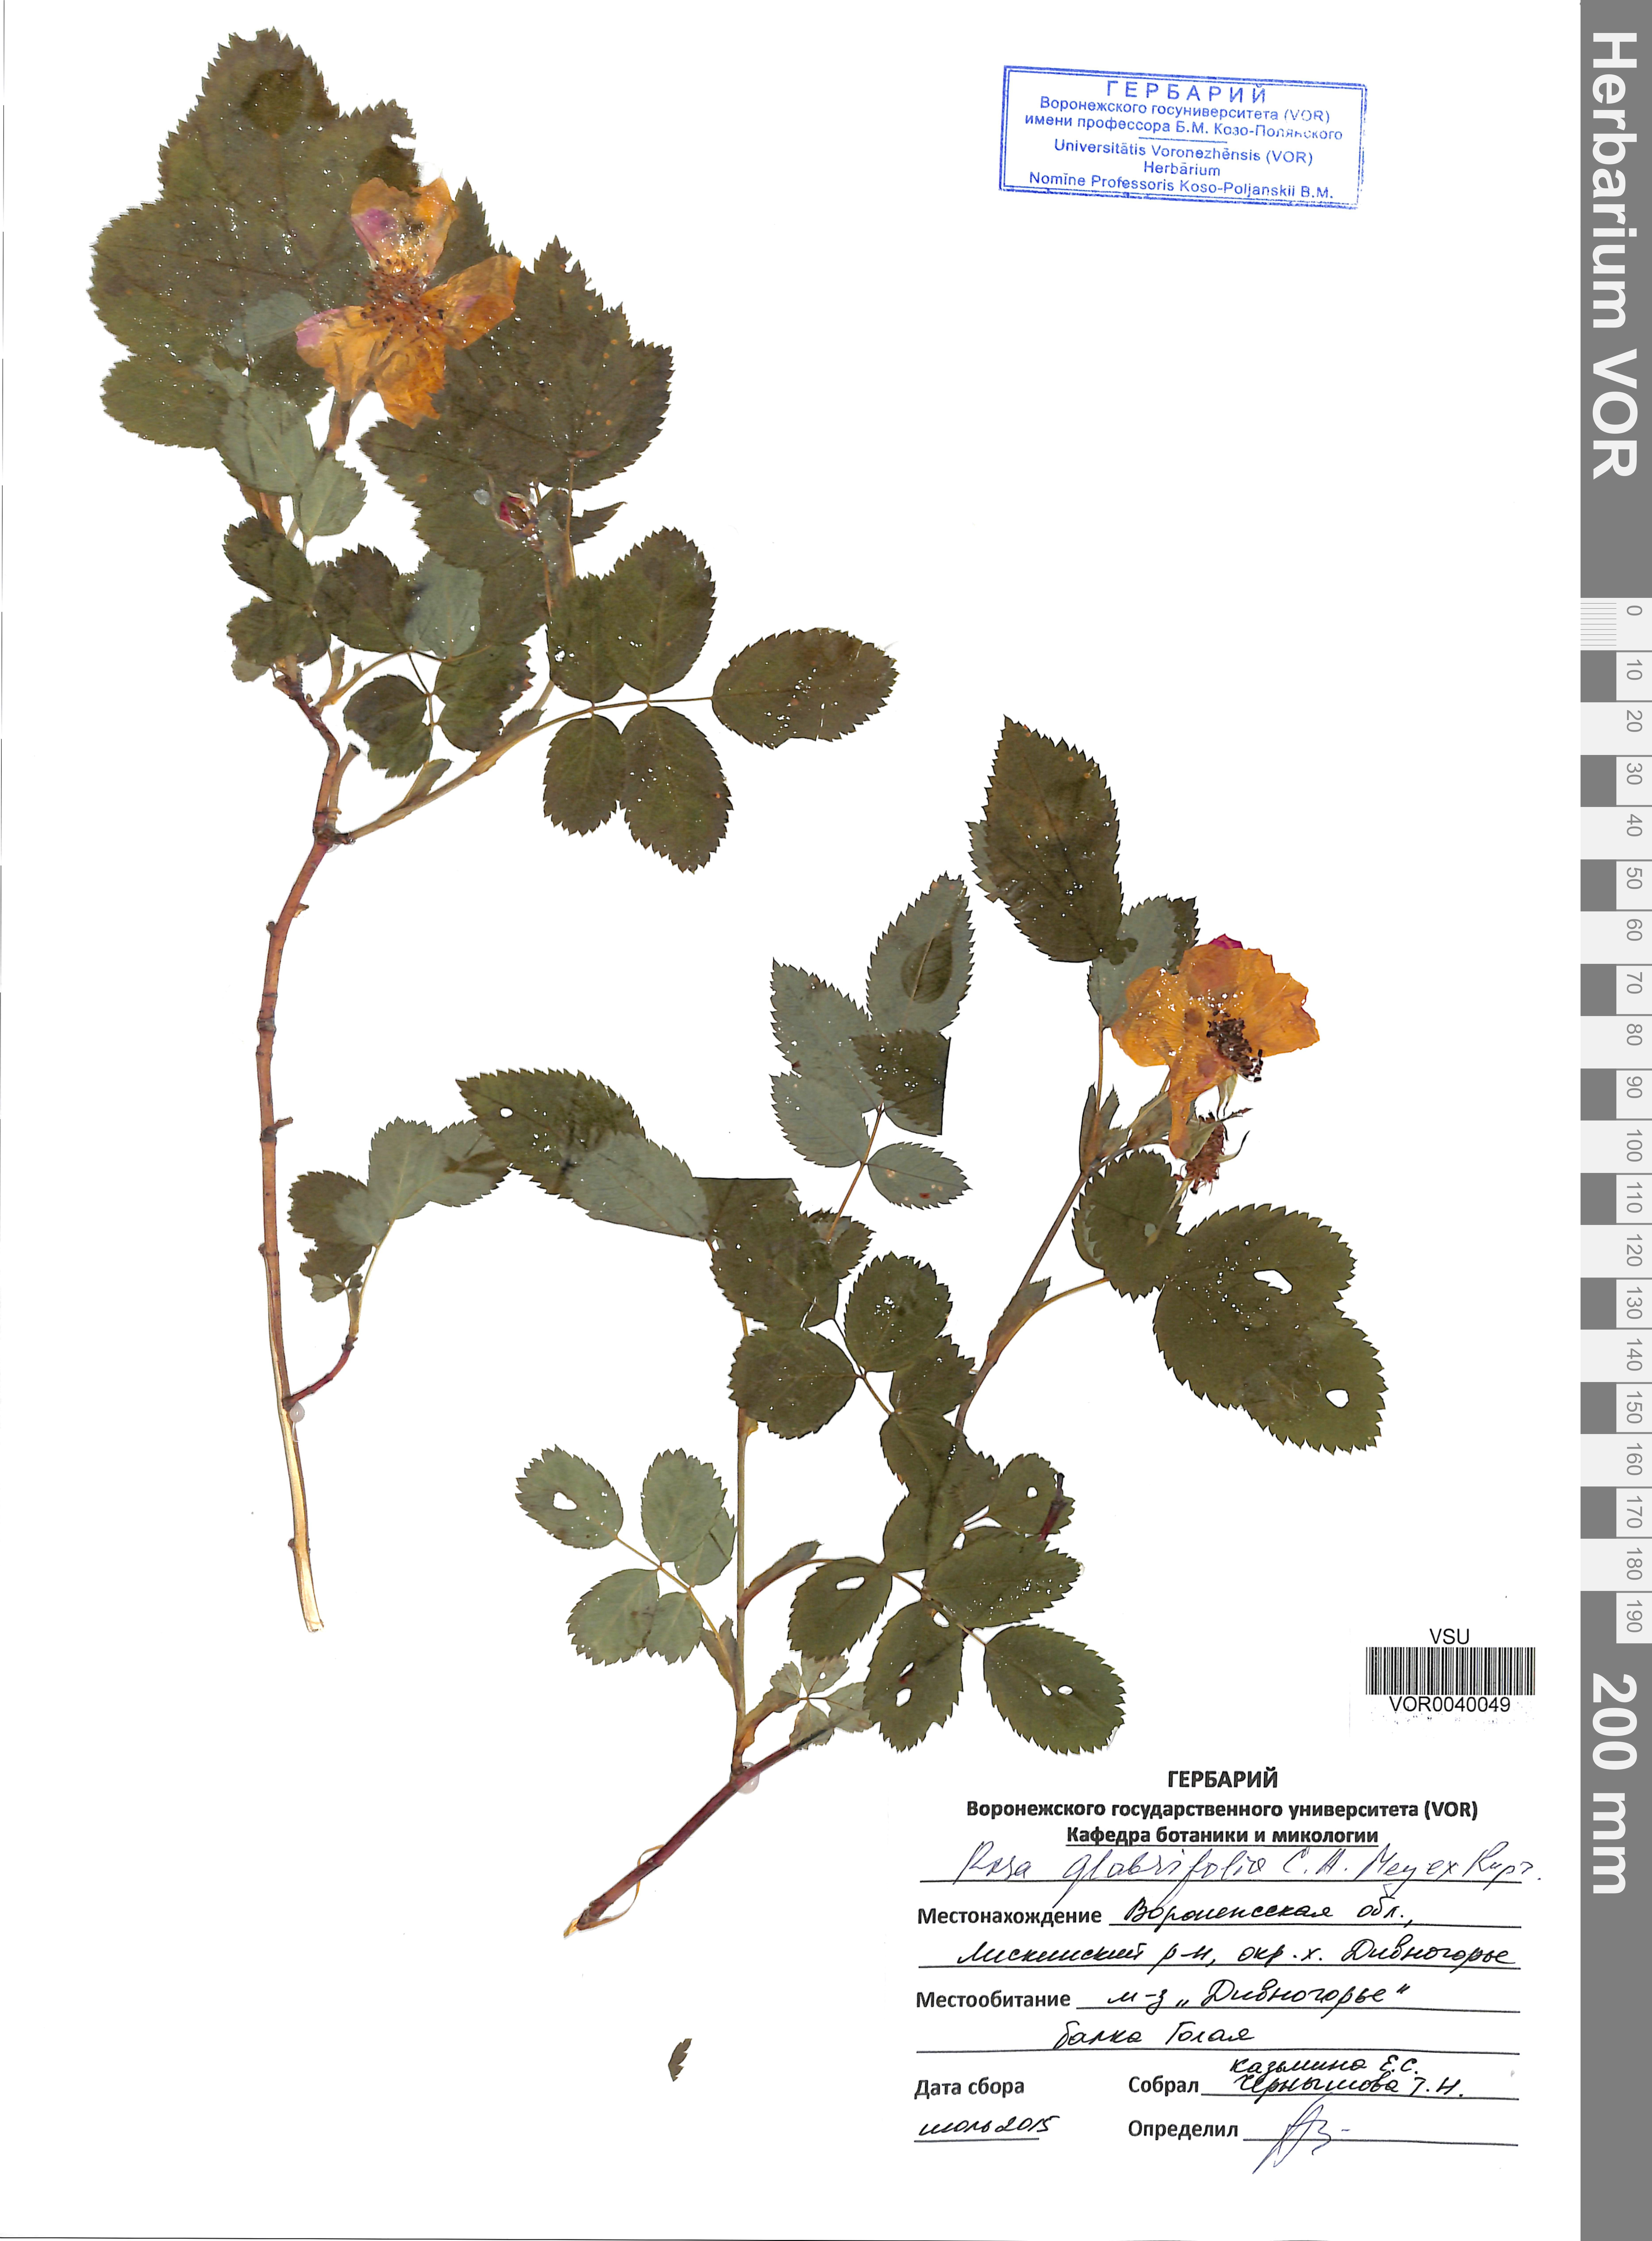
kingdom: Plantae
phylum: Tracheophyta
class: Magnoliopsida
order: Rosales
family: Rosaceae
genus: Rosa
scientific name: Rosa glabrifolia
